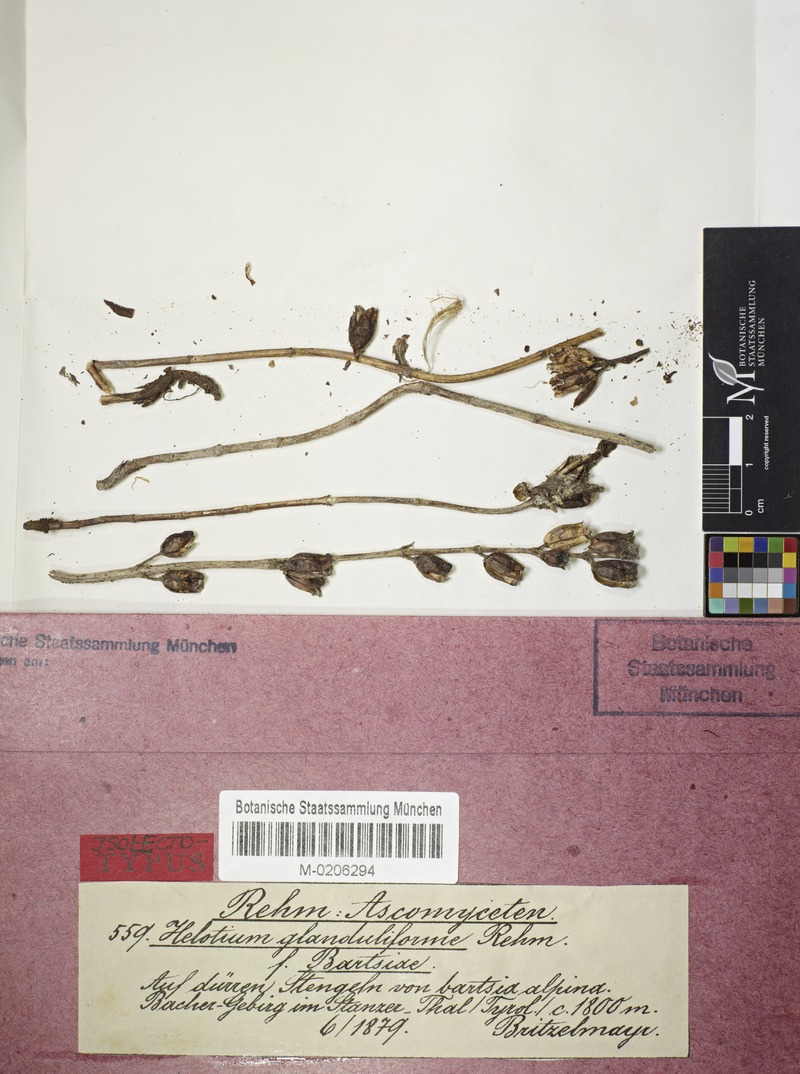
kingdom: Fungi
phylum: Ascomycota
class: Leotiomycetes
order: Helotiales
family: Helotiaceae
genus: Cyathicula
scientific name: Cyathicula cyathoidea
